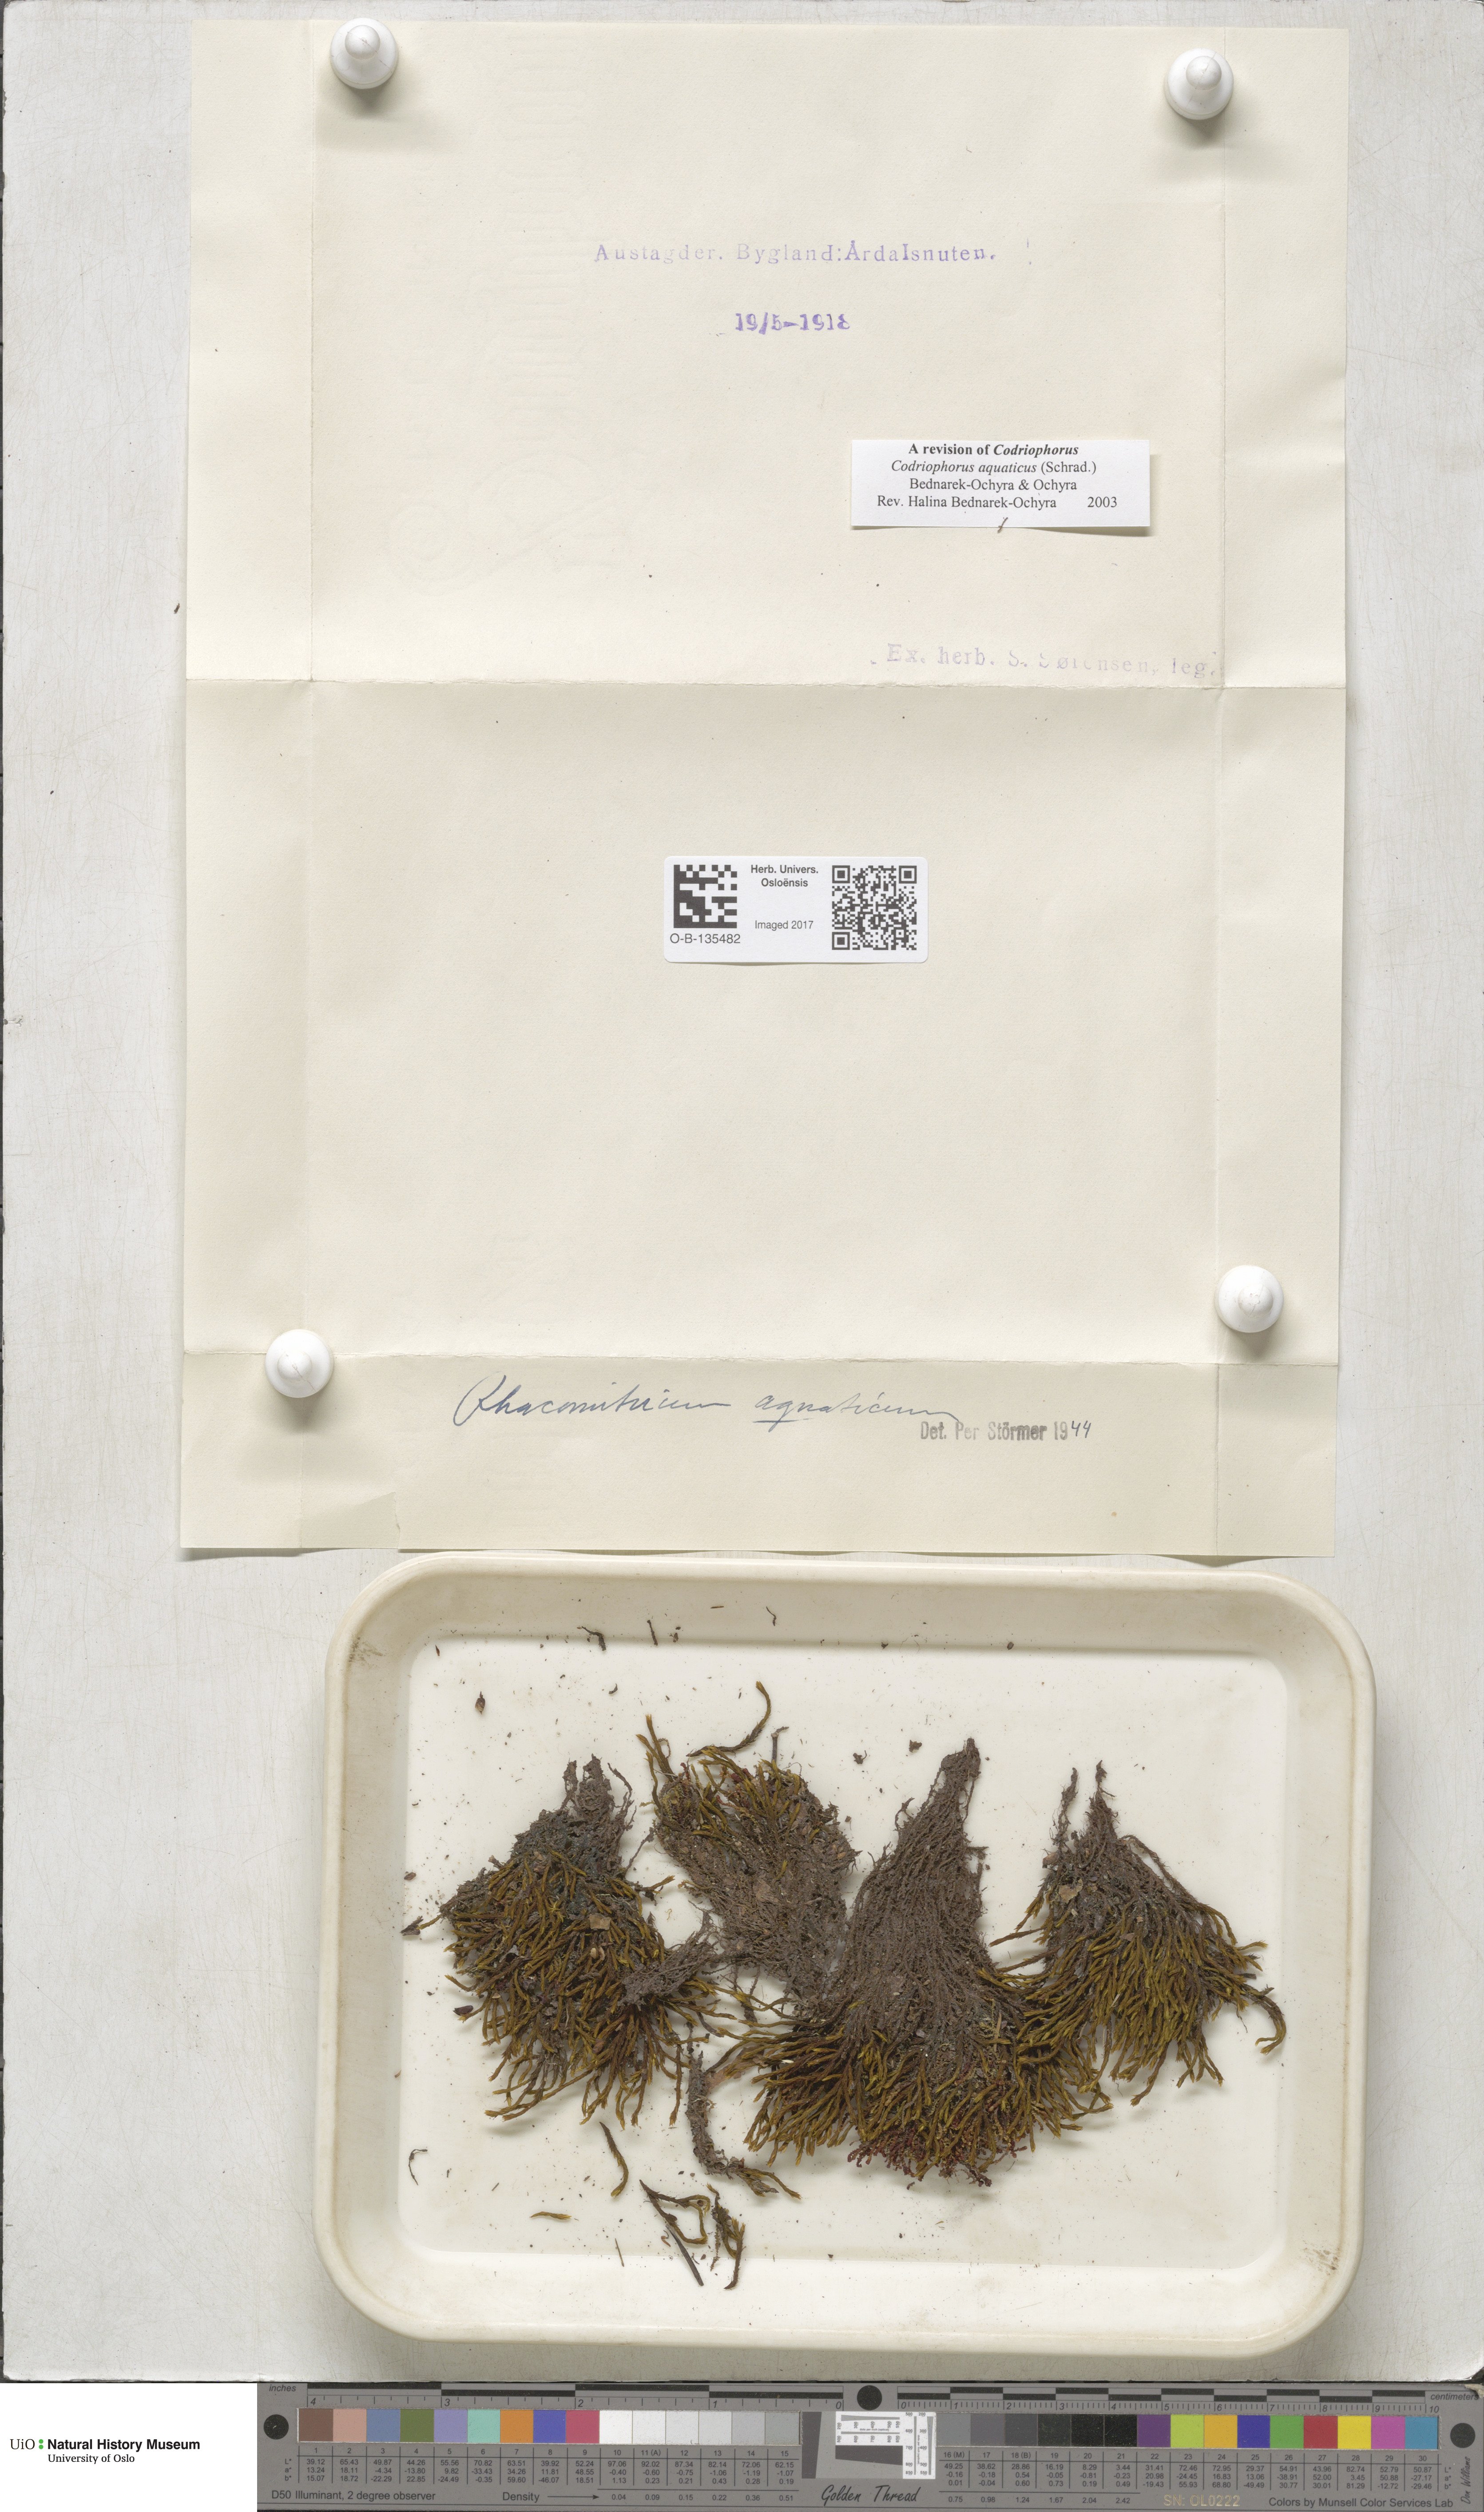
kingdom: Plantae
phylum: Bryophyta
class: Bryopsida
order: Grimmiales
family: Grimmiaceae
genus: Codriophorus
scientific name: Codriophorus aquaticus
